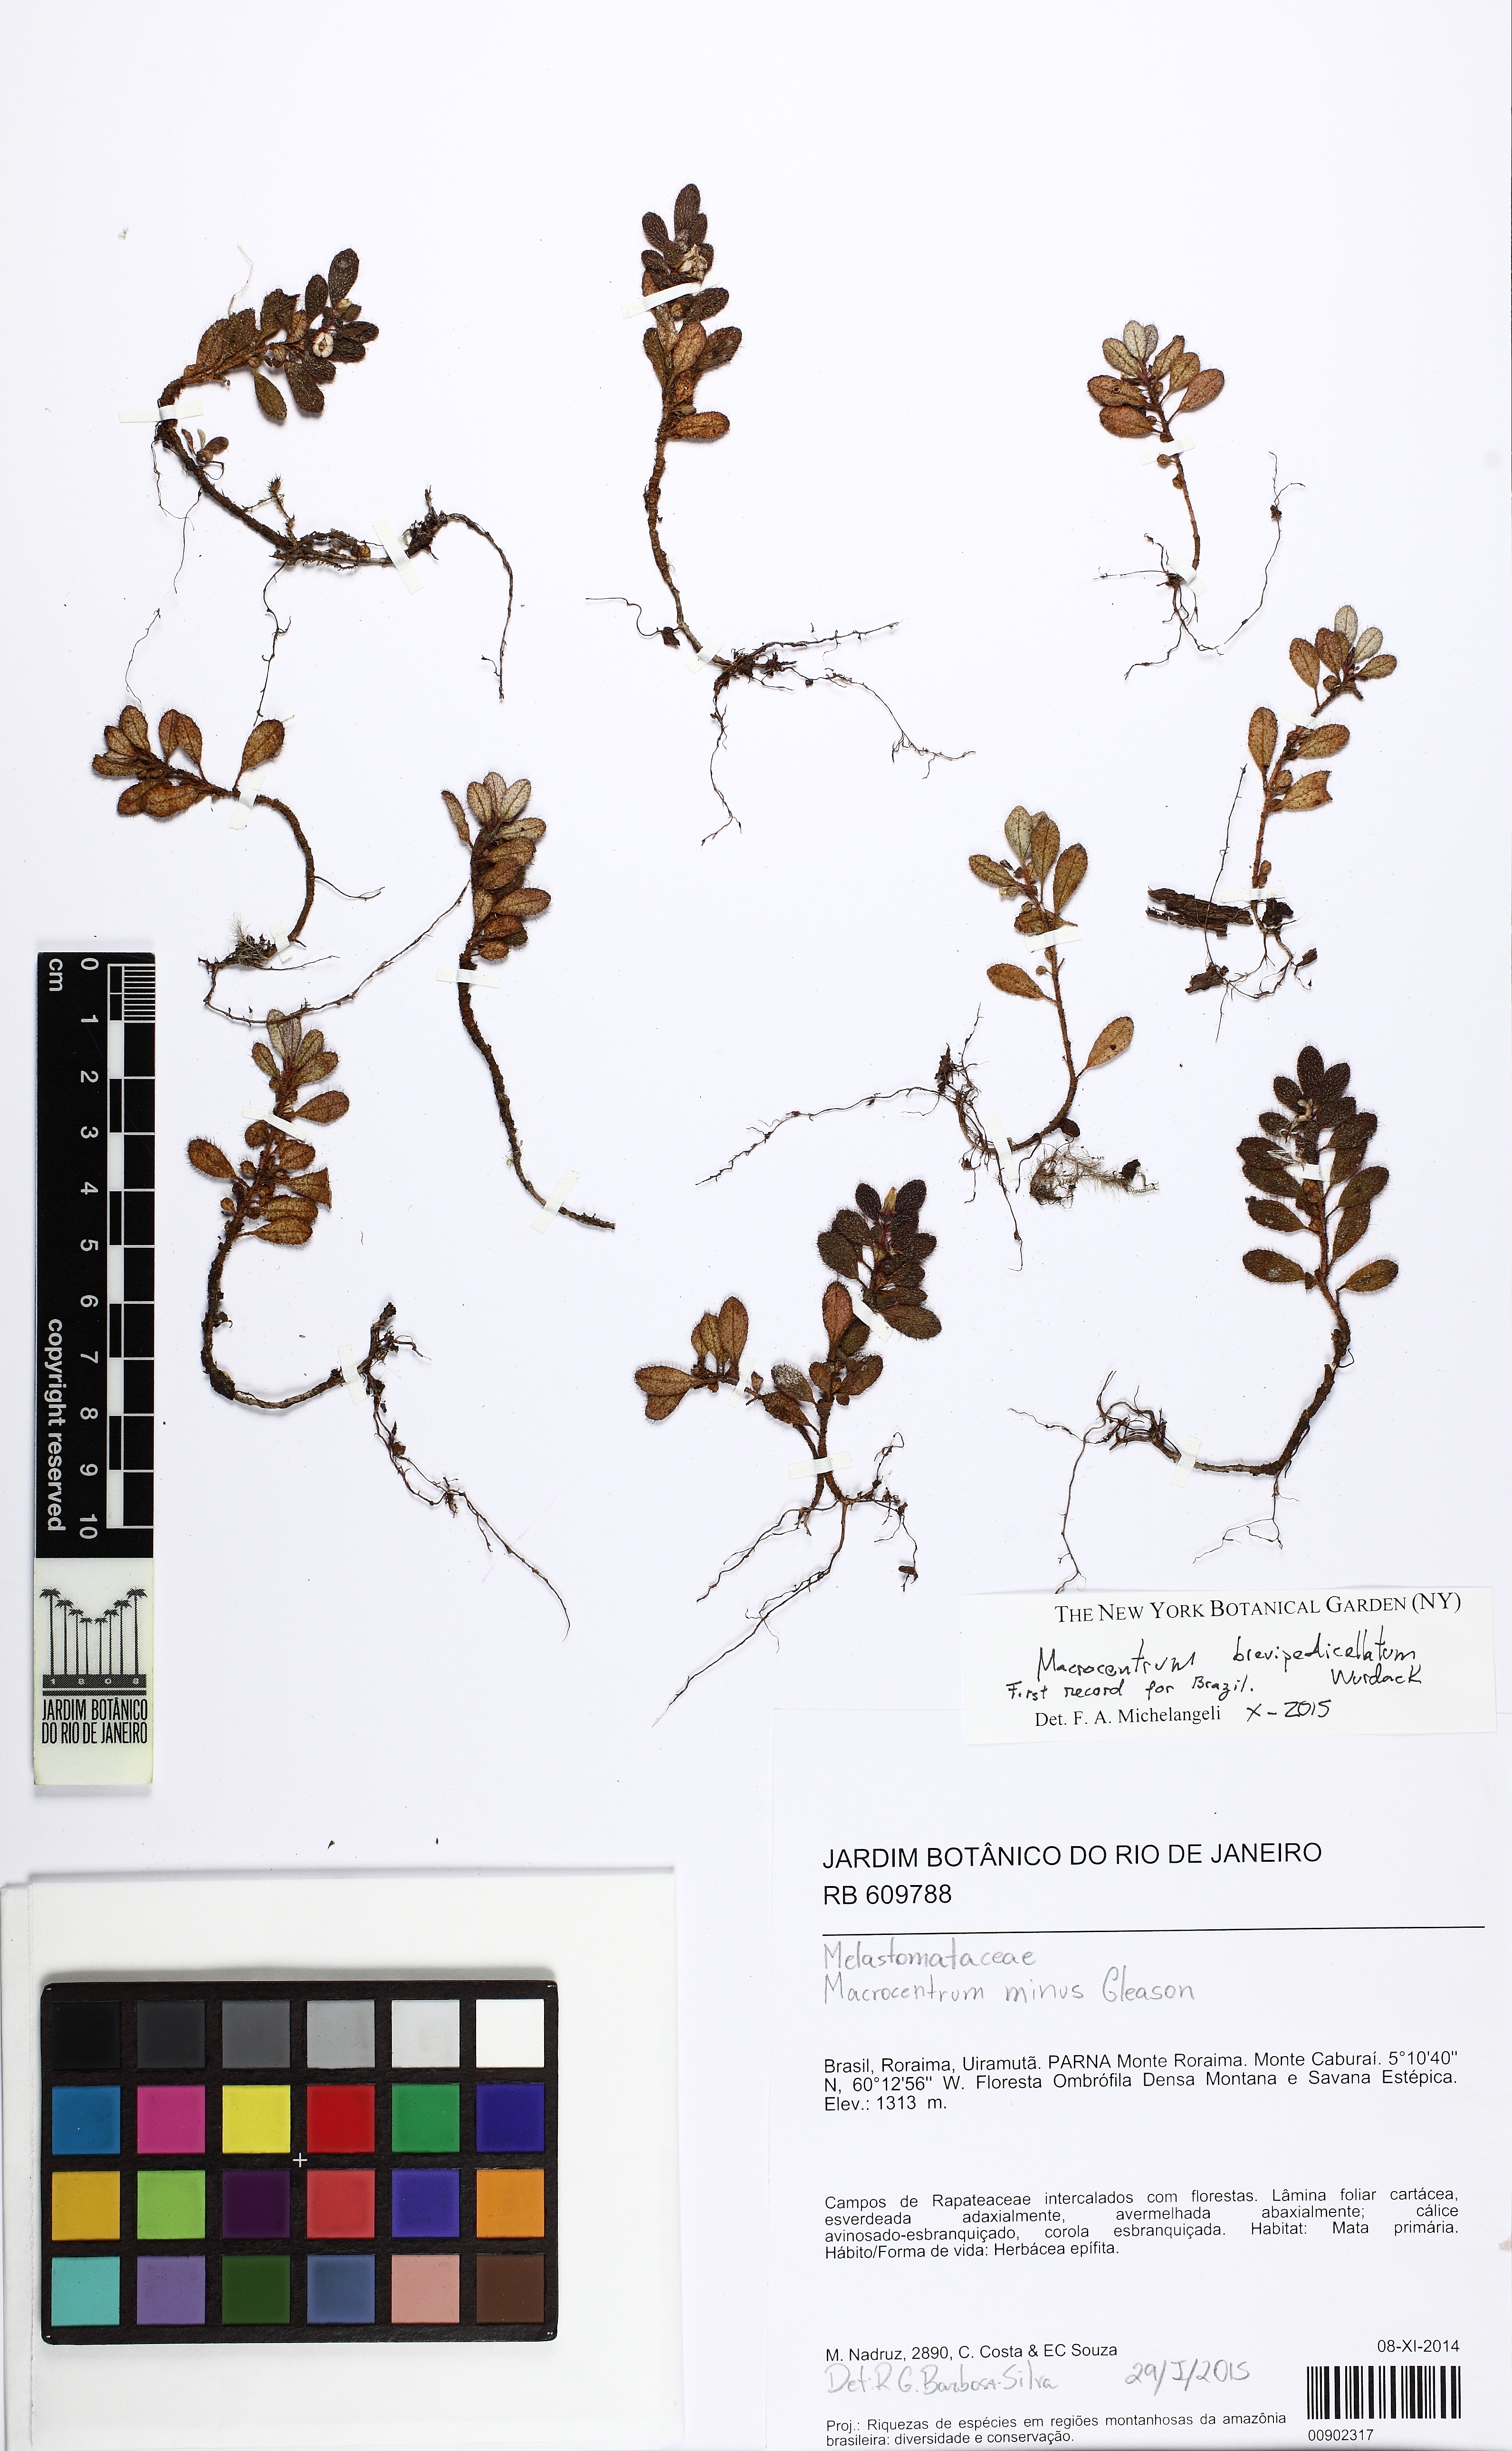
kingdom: Plantae
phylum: Tracheophyta
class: Magnoliopsida
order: Myrtales
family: Melastomataceae
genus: Macrocentrum
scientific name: Macrocentrum brevipedicellatum
